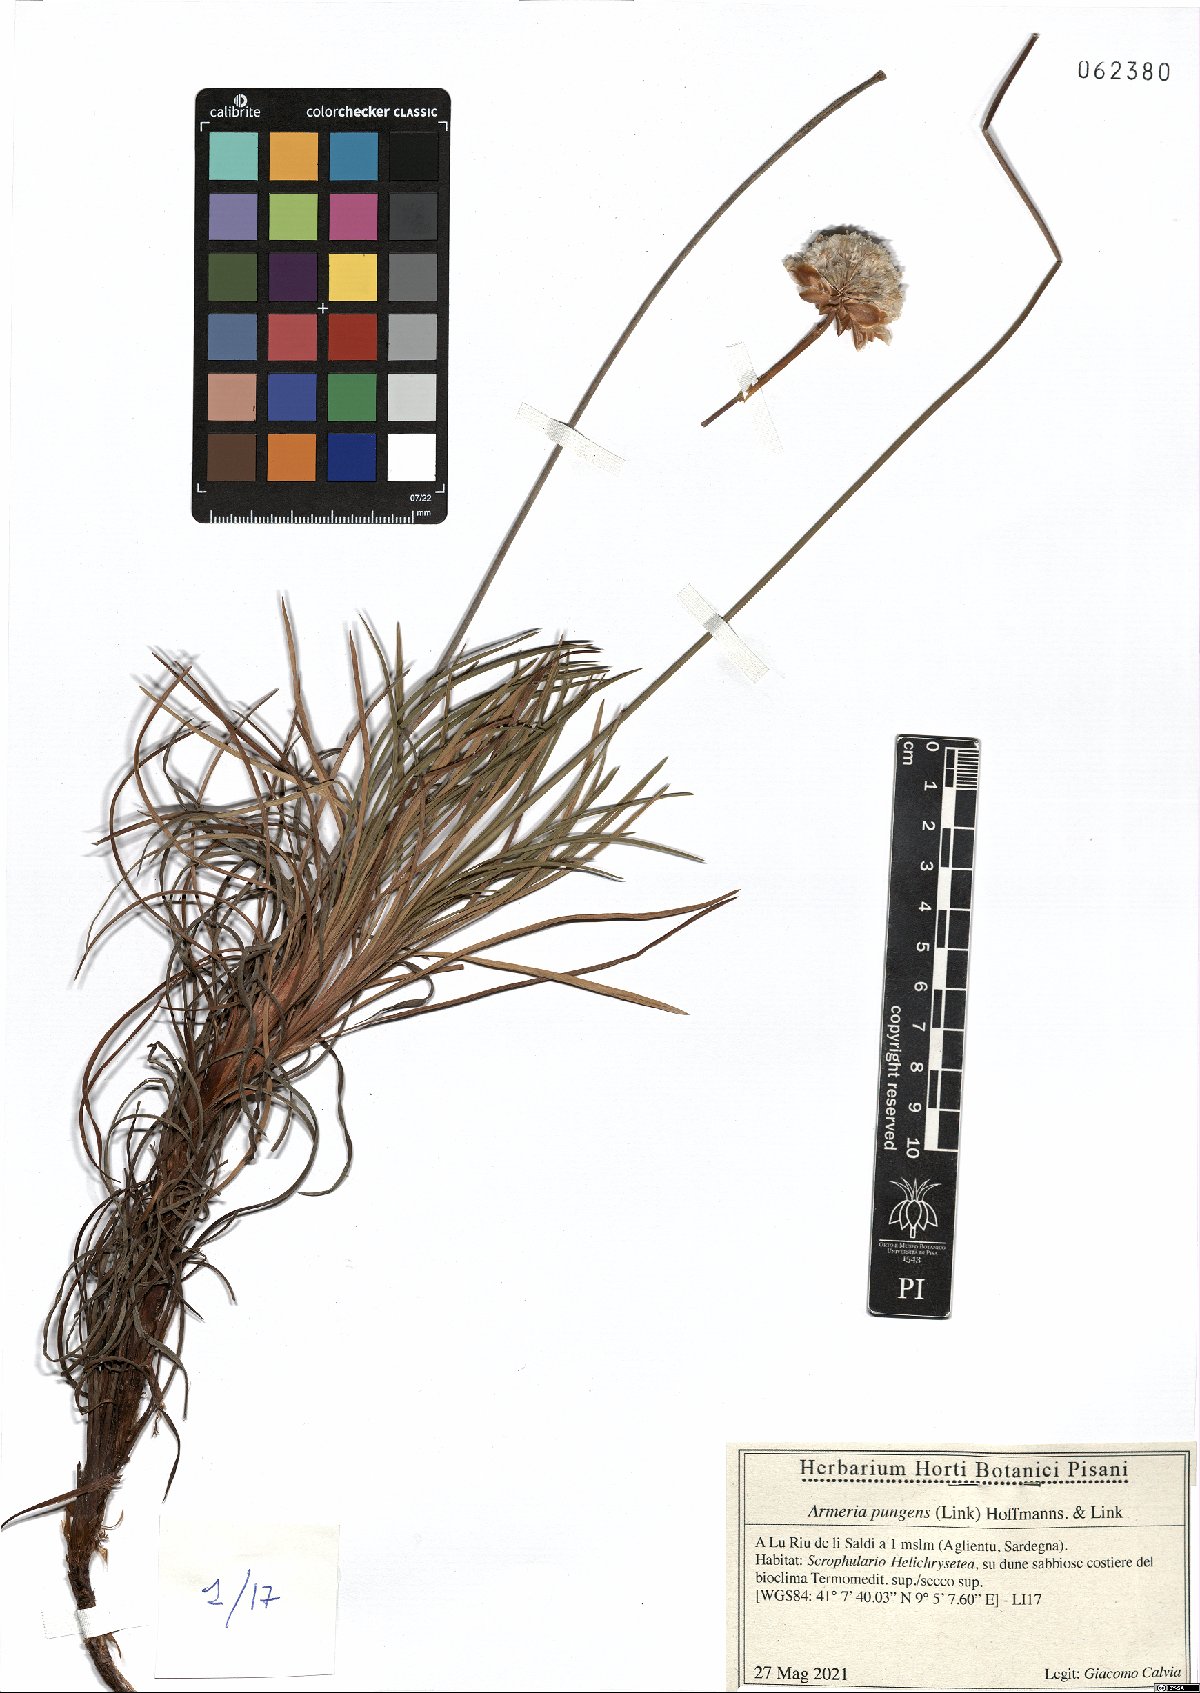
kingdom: Plantae
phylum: Tracheophyta
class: Magnoliopsida
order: Caryophyllales
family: Plumbaginaceae
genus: Armeria
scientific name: Armeria pungens
